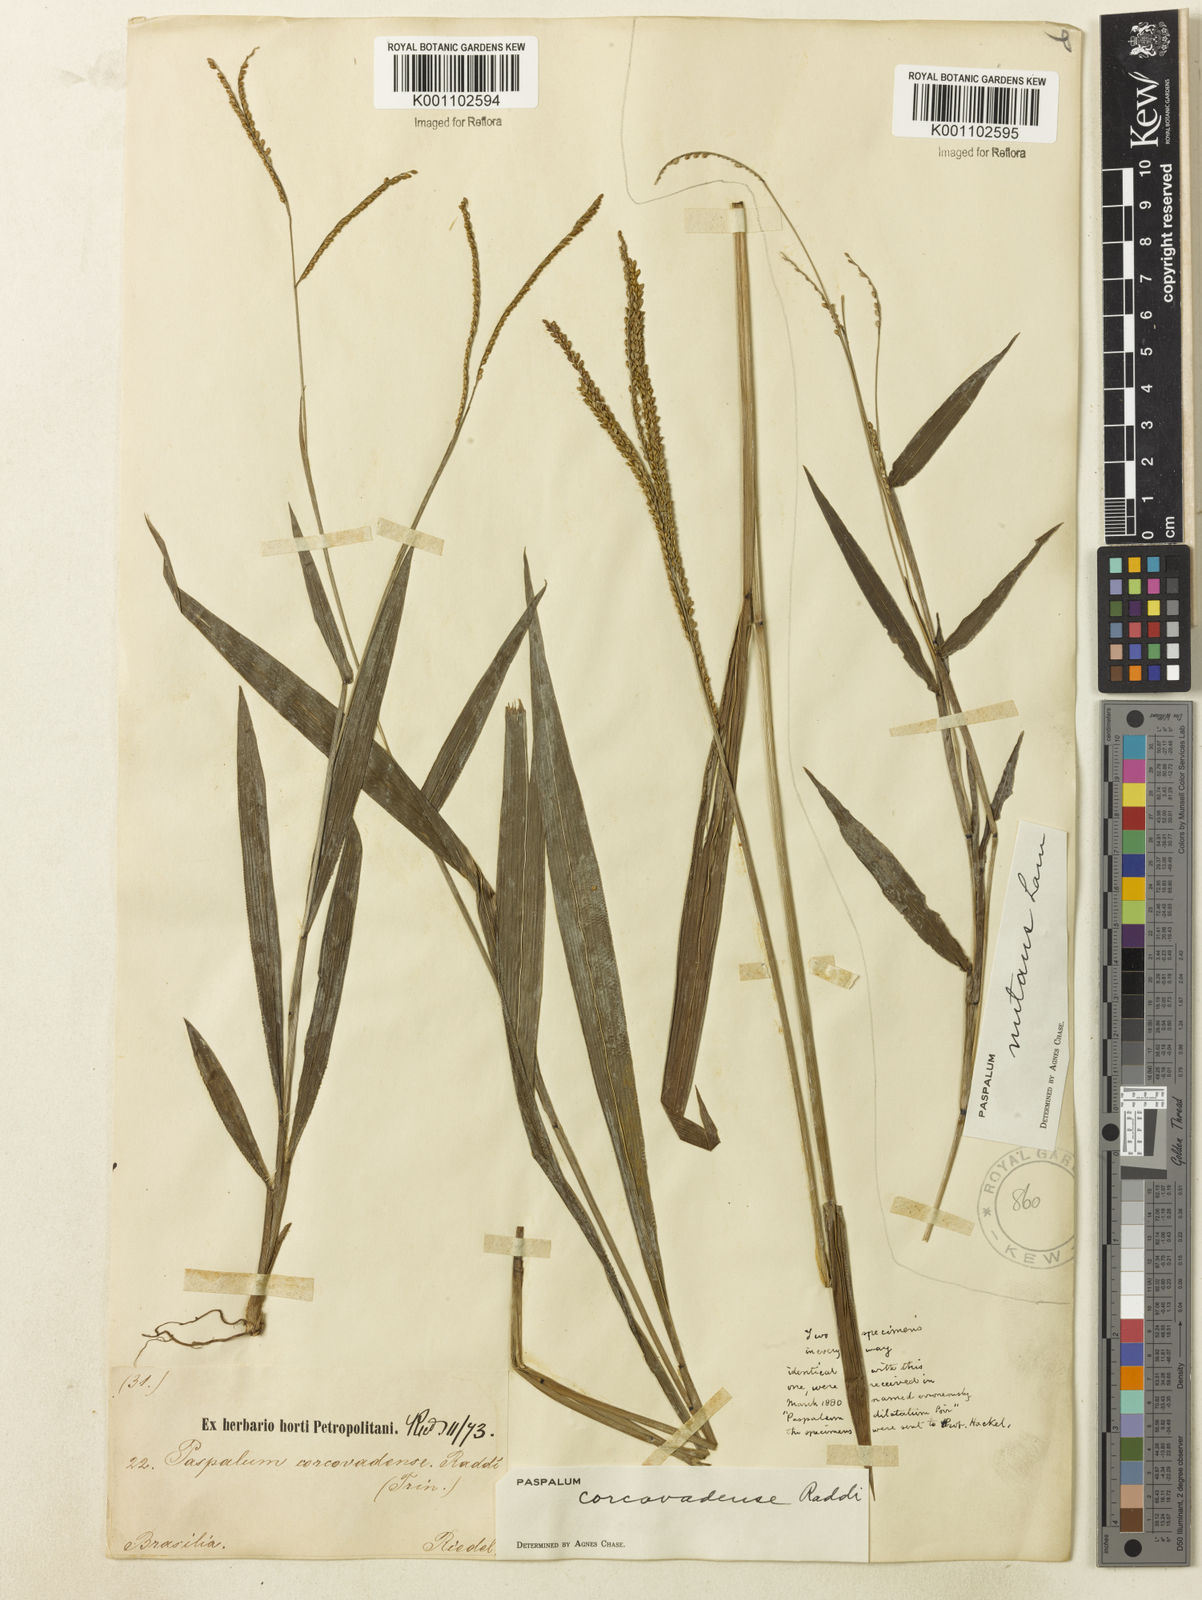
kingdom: Plantae
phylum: Tracheophyta
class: Liliopsida
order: Poales
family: Poaceae
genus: Paspalum
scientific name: Paspalum corcovadense
